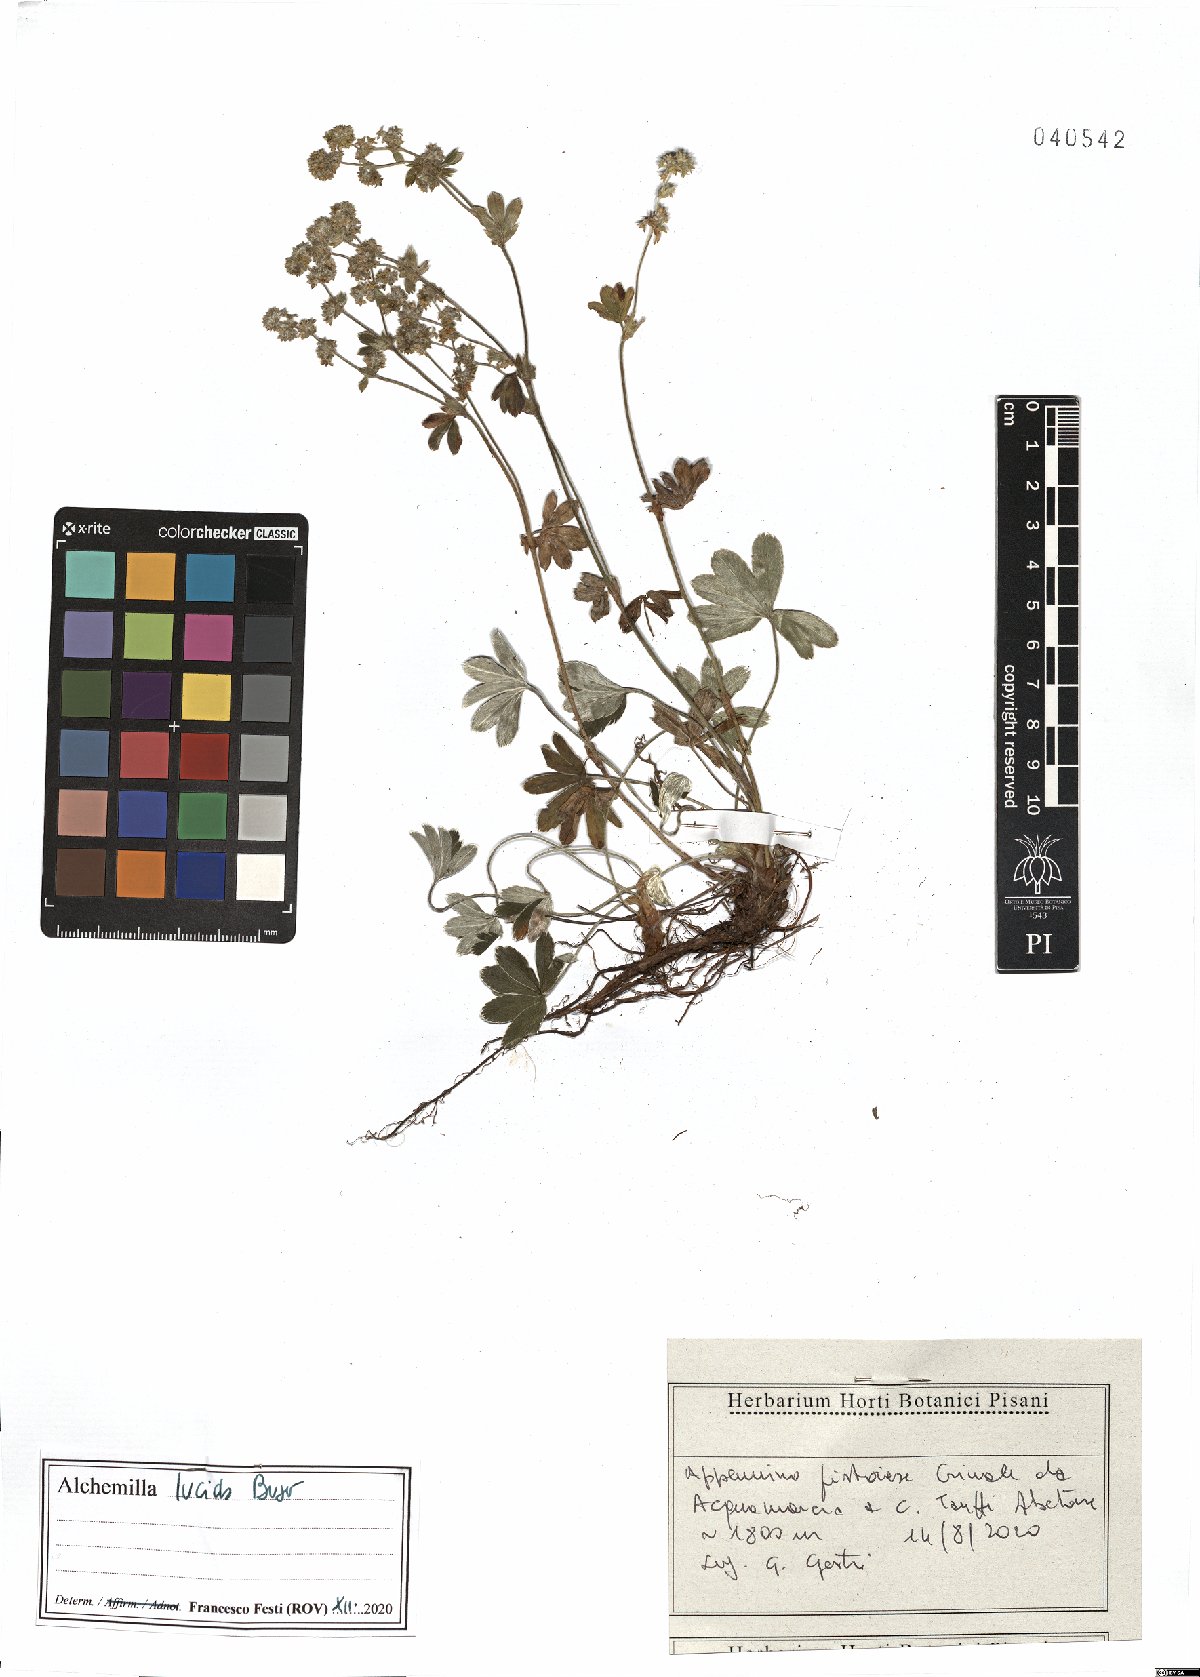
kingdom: Plantae
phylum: Tracheophyta
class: Magnoliopsida
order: Rosales
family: Rosaceae
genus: Alchemilla
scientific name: Alchemilla lucida
